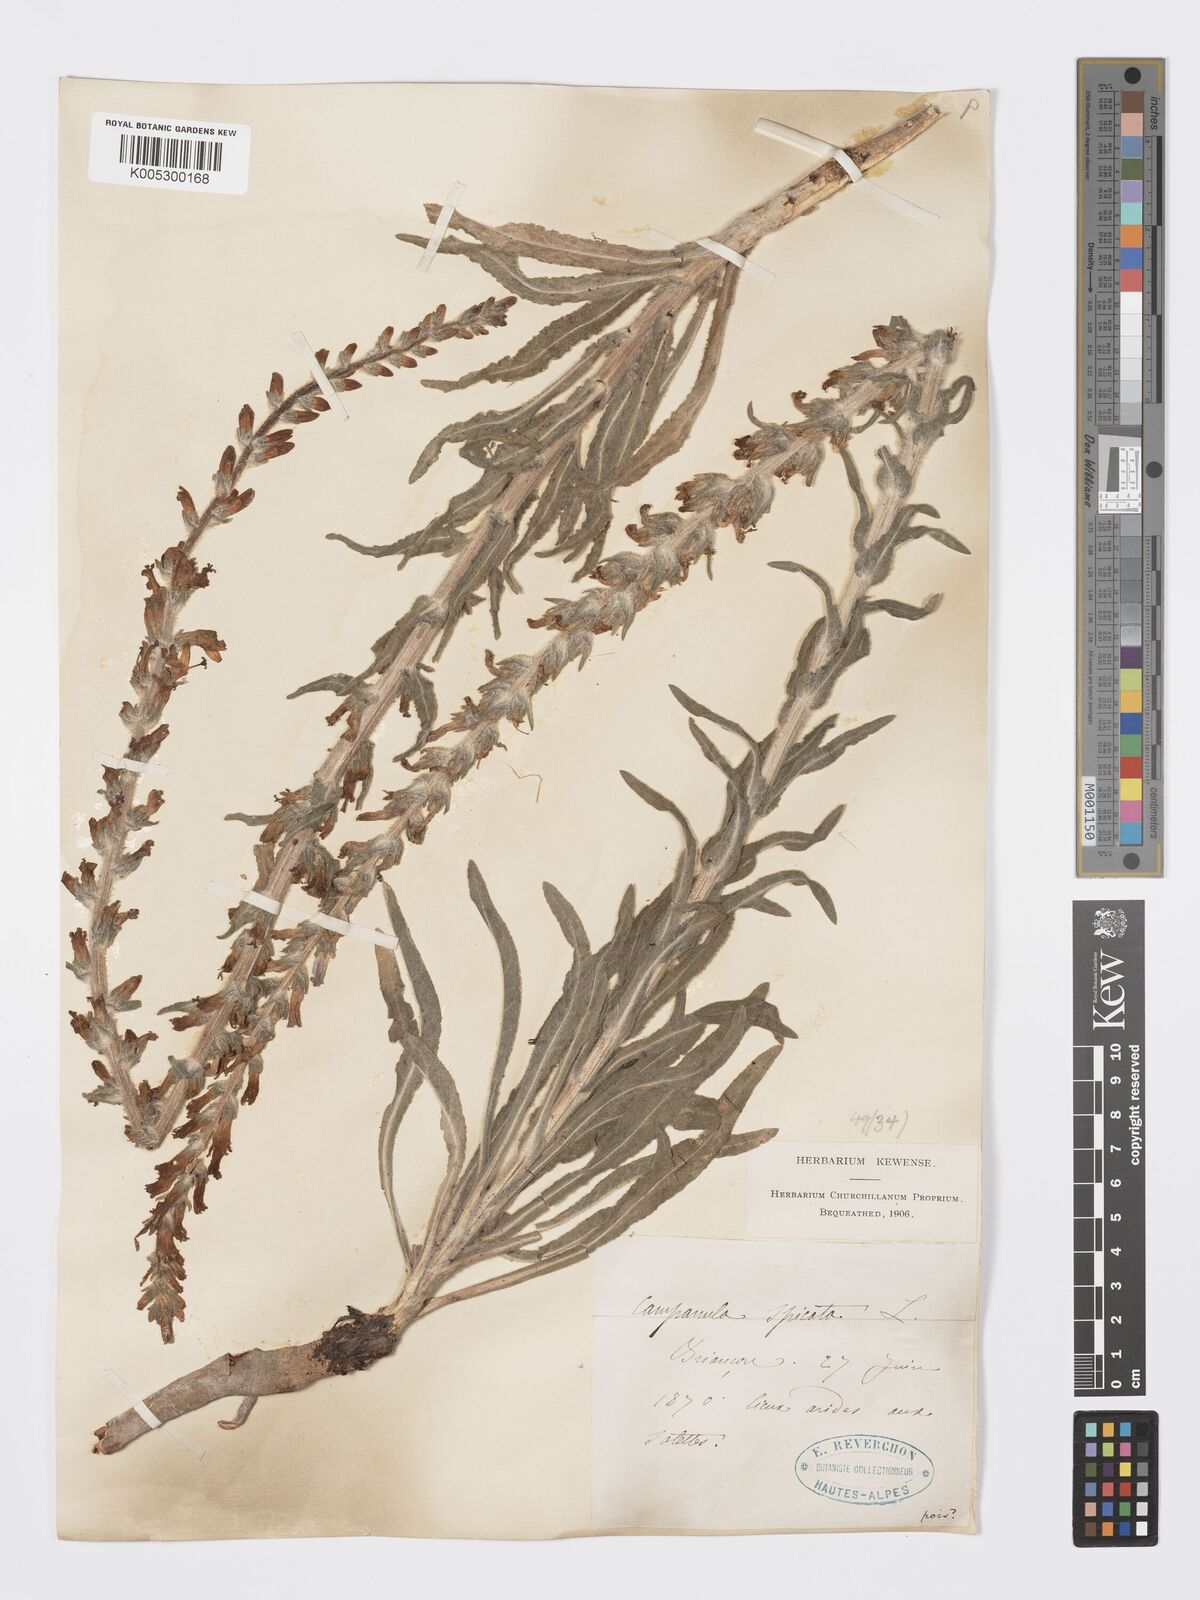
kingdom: Plantae
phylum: Tracheophyta
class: Magnoliopsida
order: Asterales
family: Campanulaceae
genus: Campanula
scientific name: Campanula spicata
